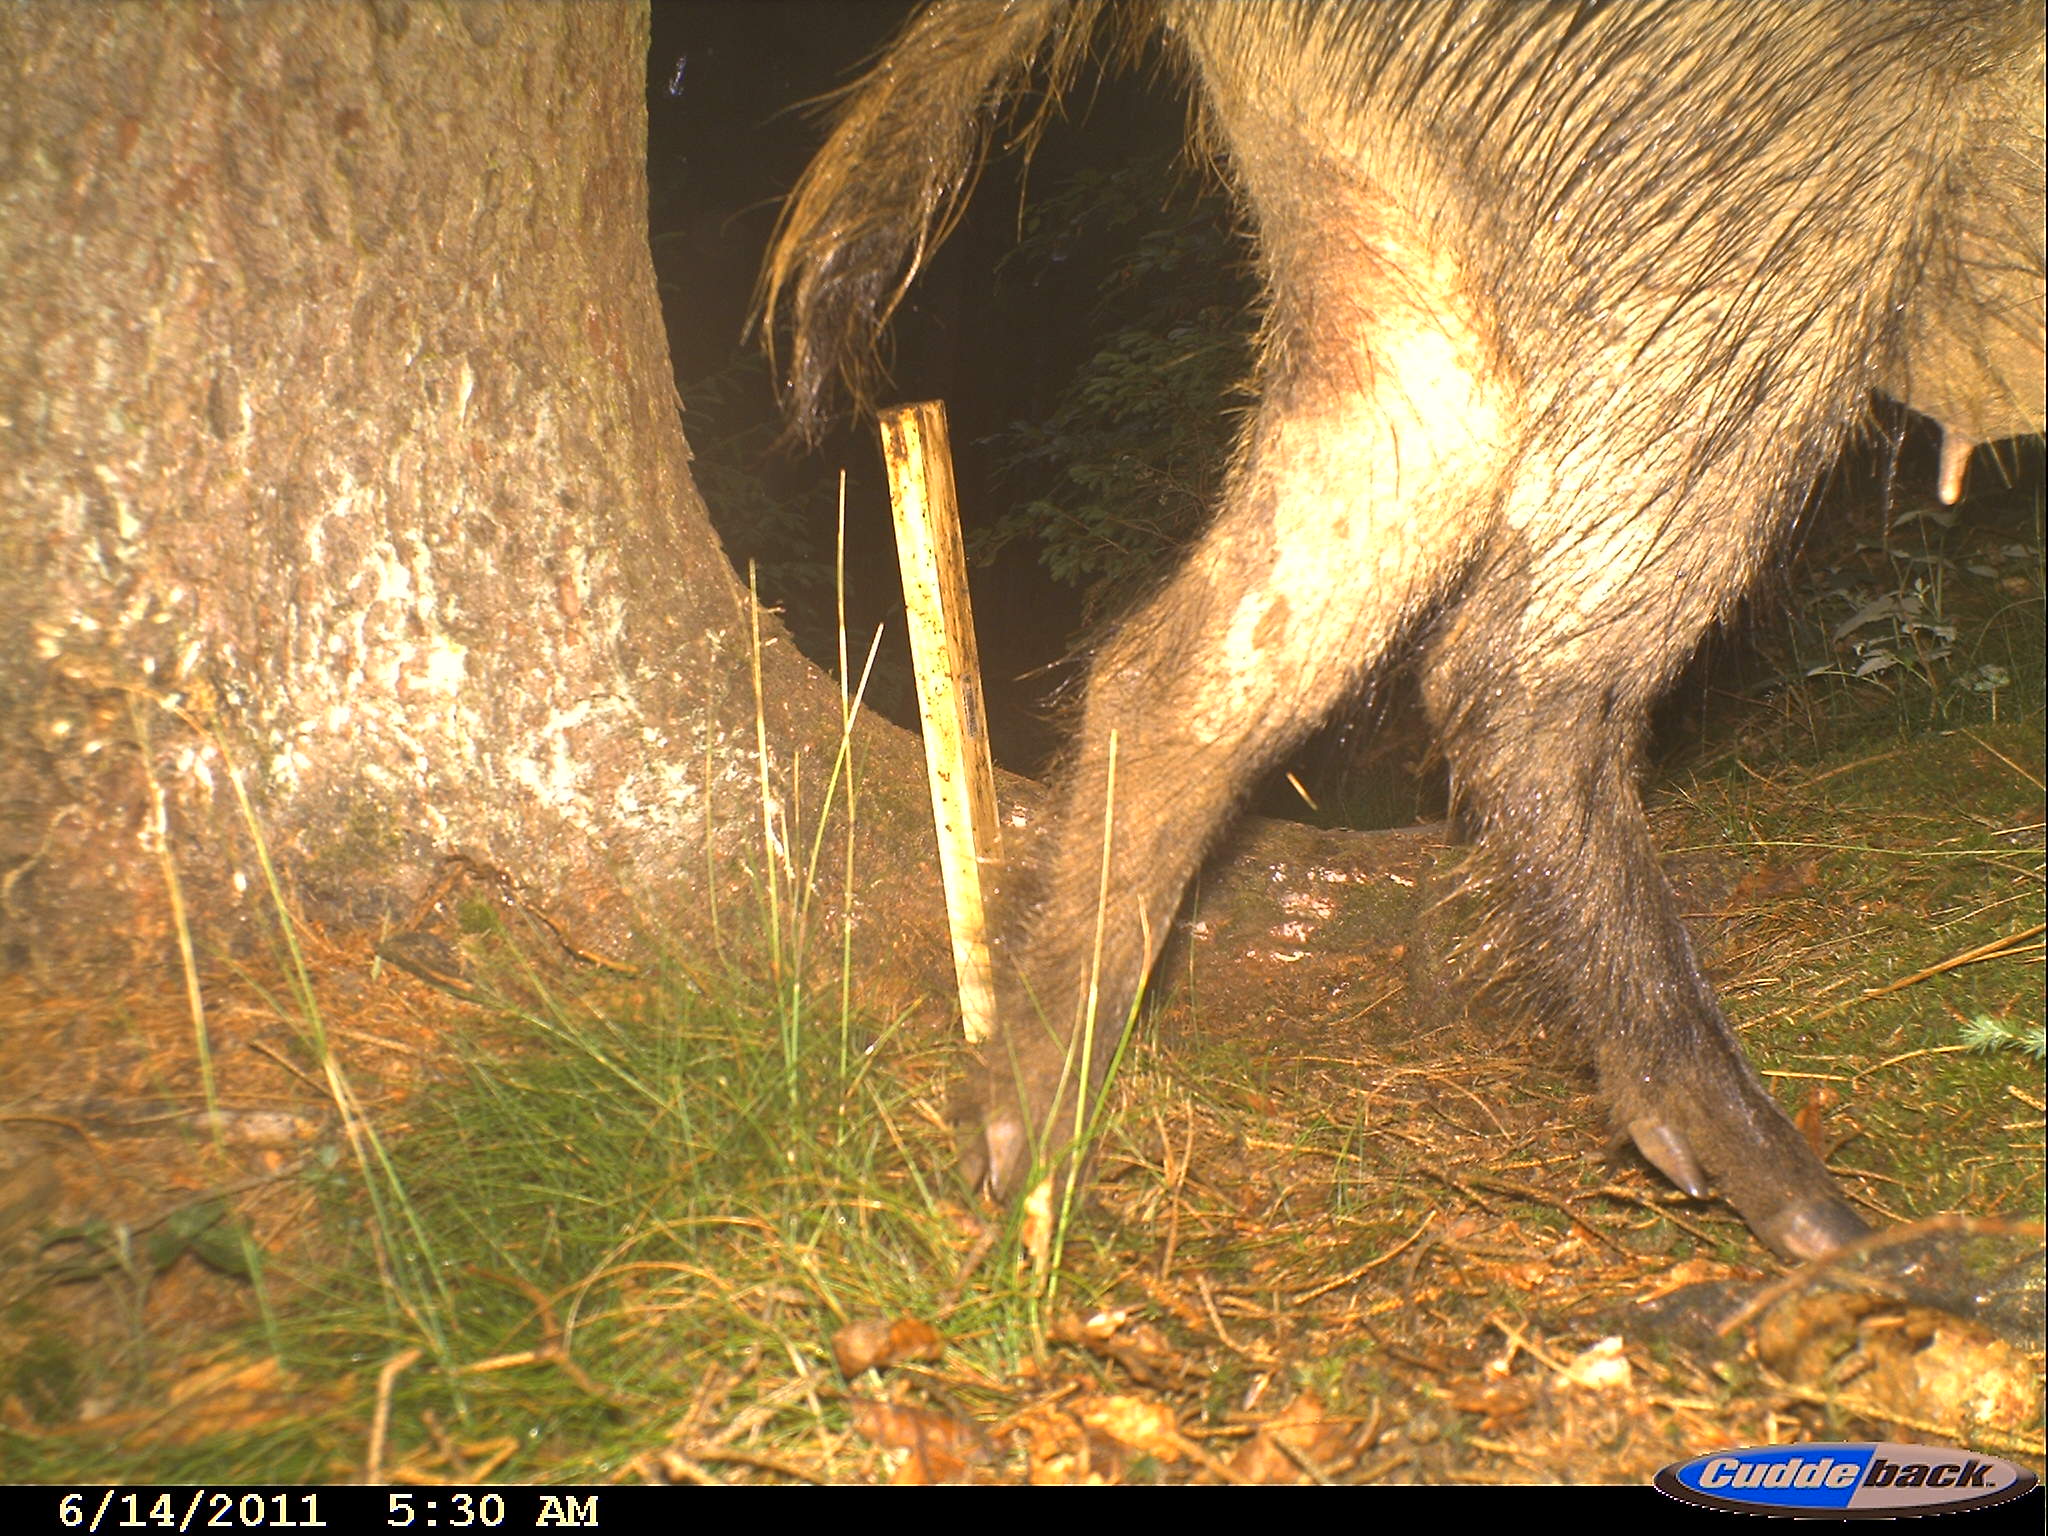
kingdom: Animalia
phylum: Chordata
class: Mammalia
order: Artiodactyla
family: Suidae
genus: Sus
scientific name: Sus scrofa
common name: Wild boar
